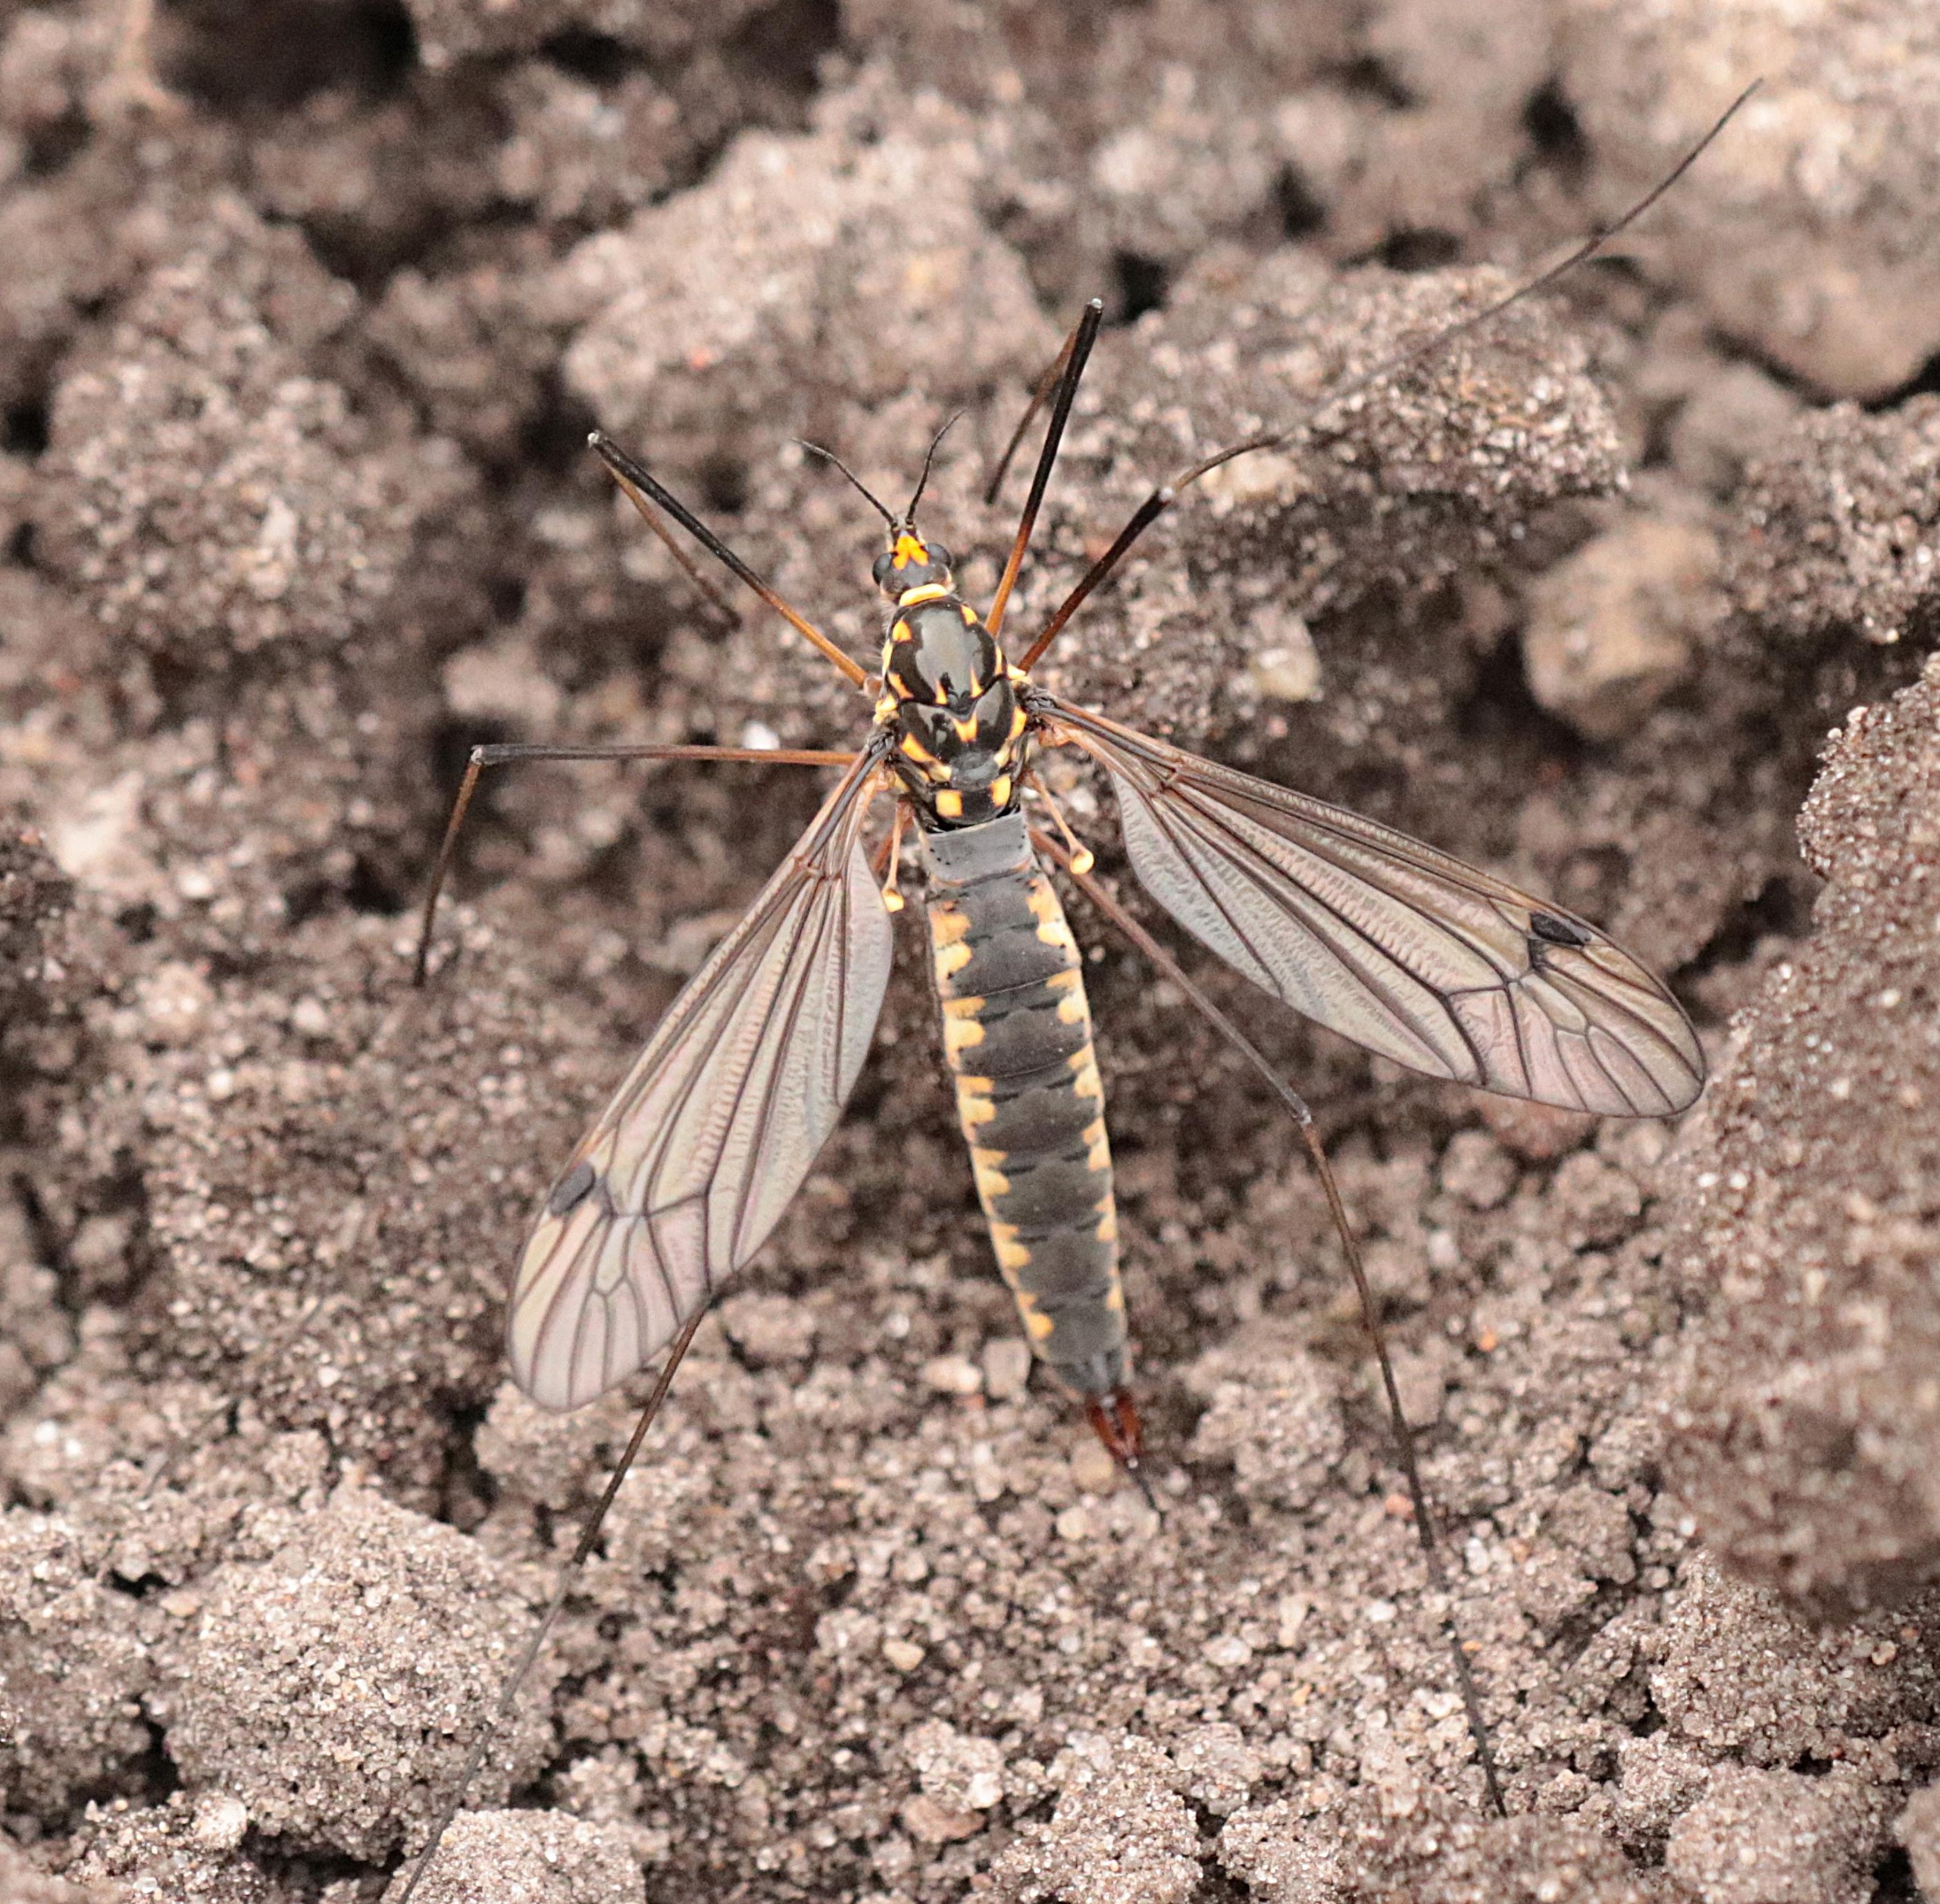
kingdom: Animalia
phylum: Arthropoda
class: Insecta
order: Diptera
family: Tipulidae
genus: Nephrotoma
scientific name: Nephrotoma pratensis
